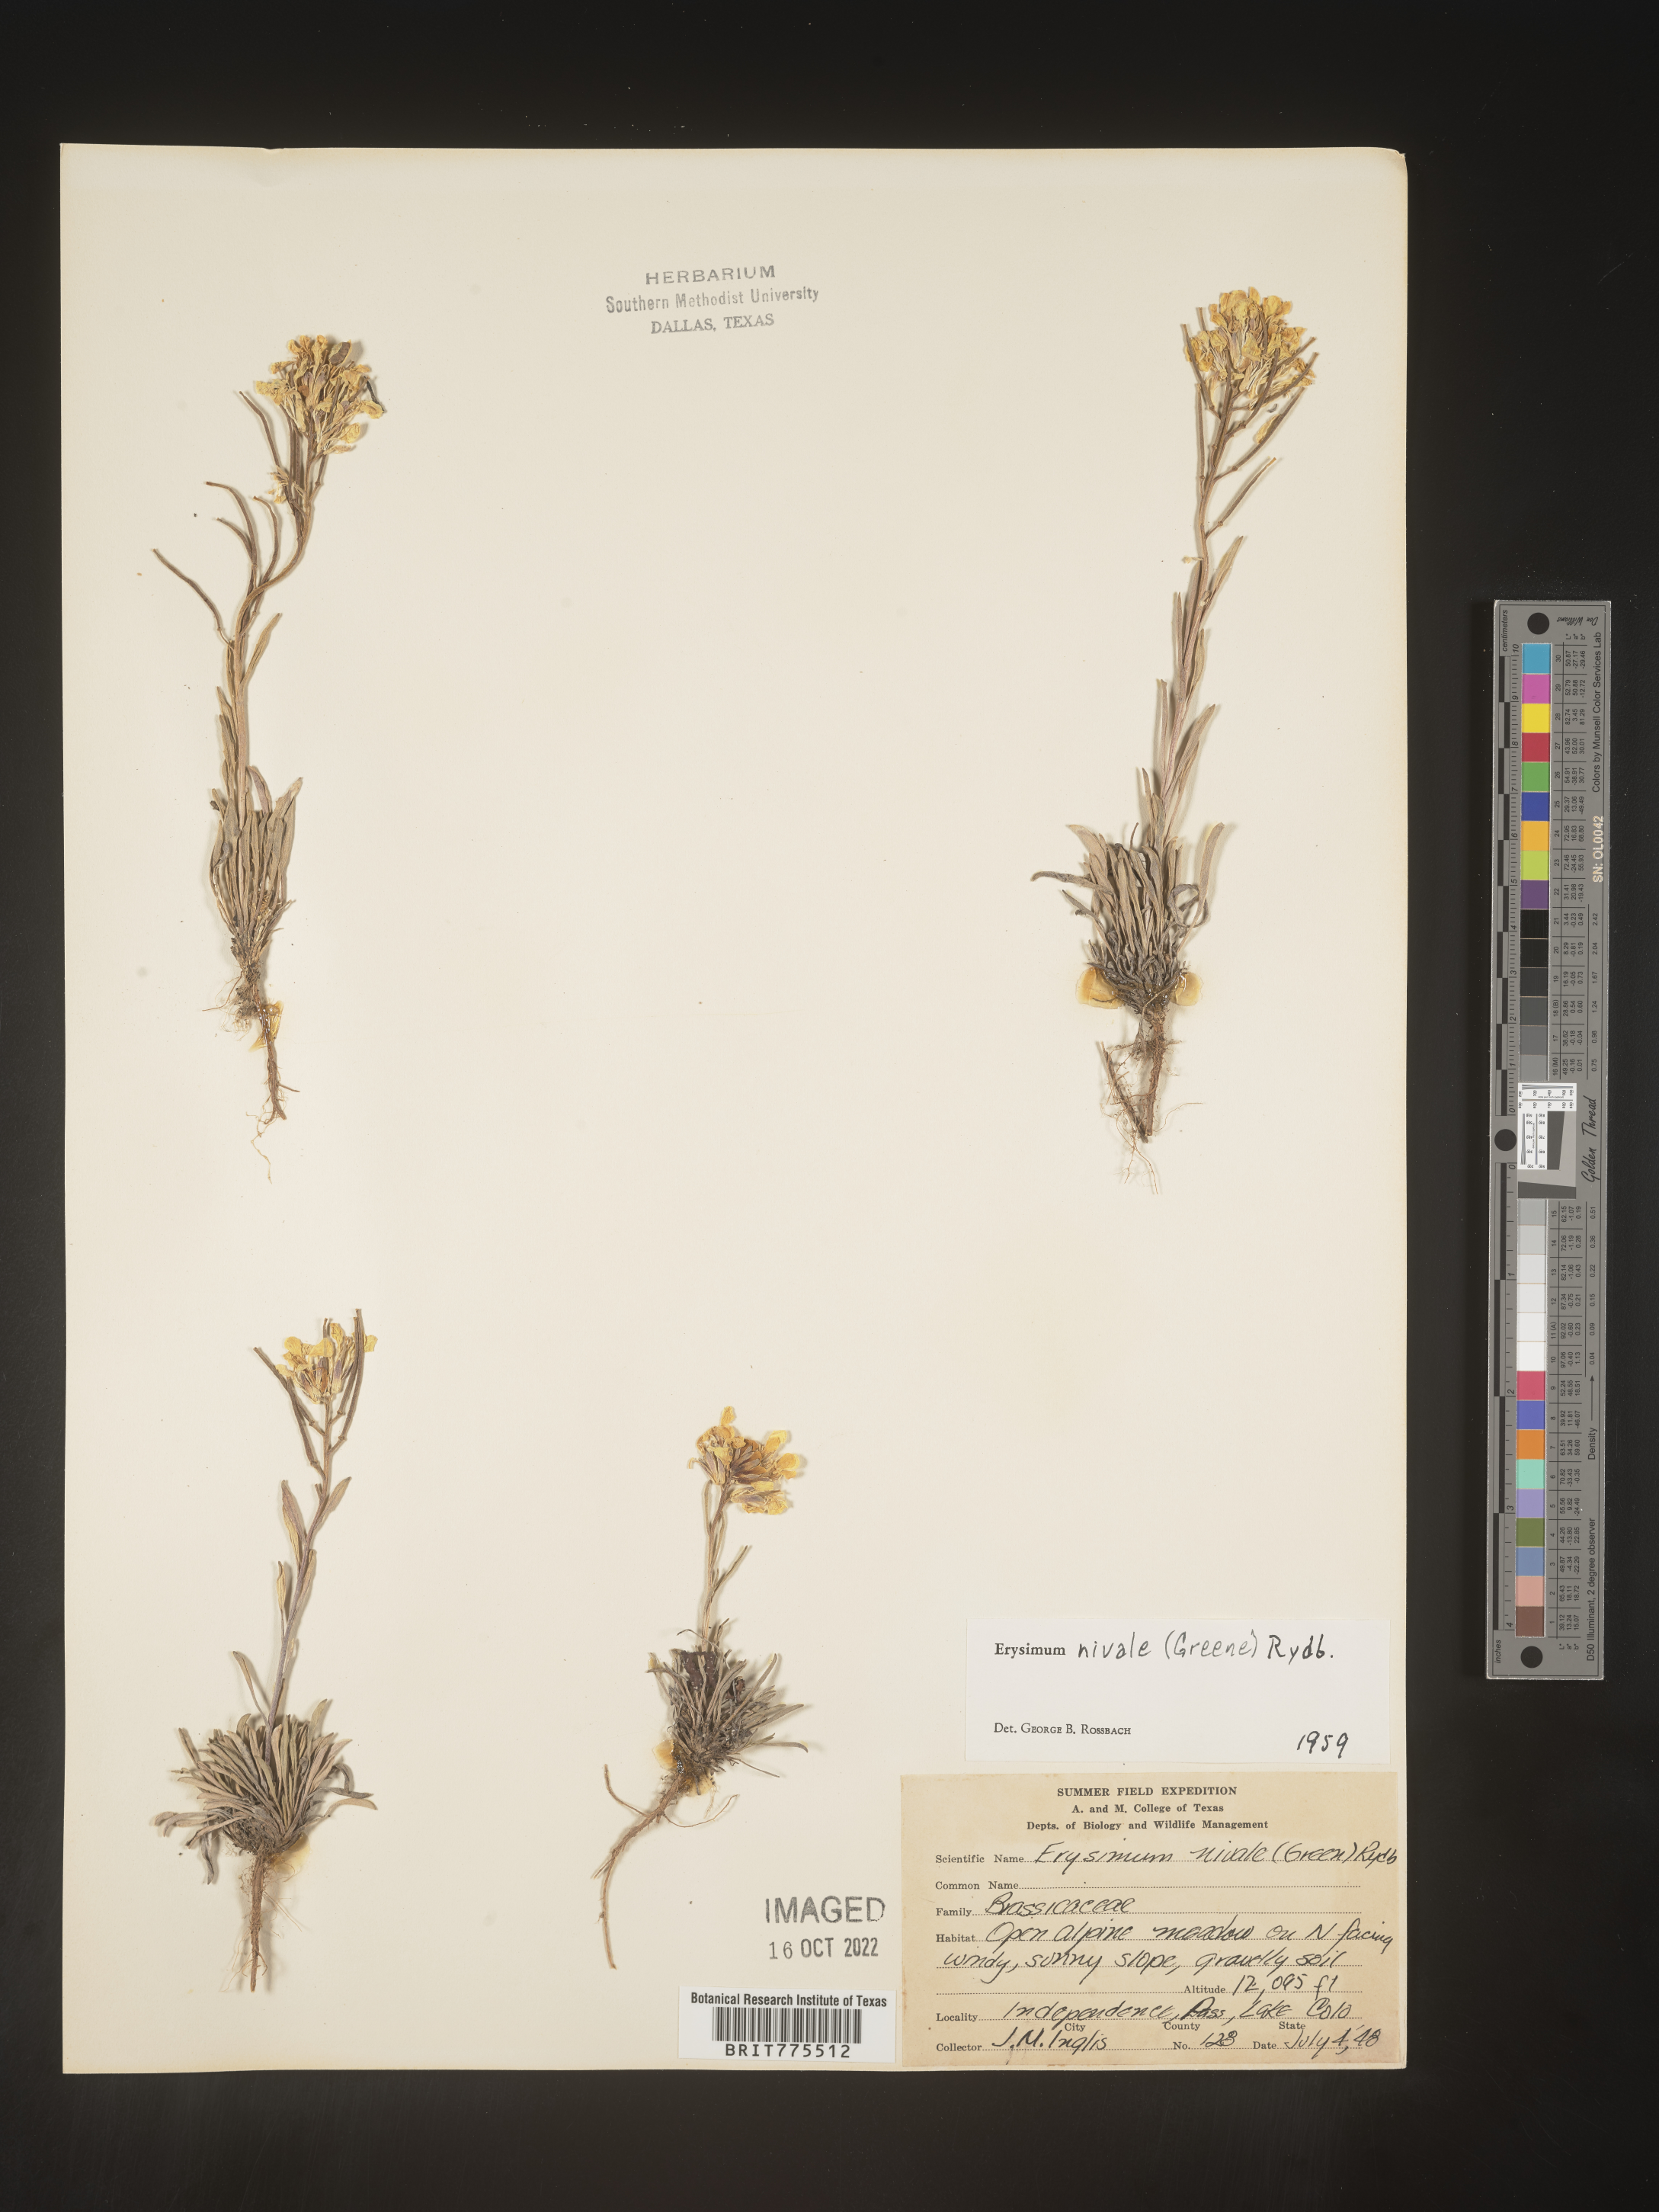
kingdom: Plantae
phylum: Tracheophyta
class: Magnoliopsida
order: Brassicales
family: Brassicaceae
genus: Erysimum
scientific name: Erysimum
